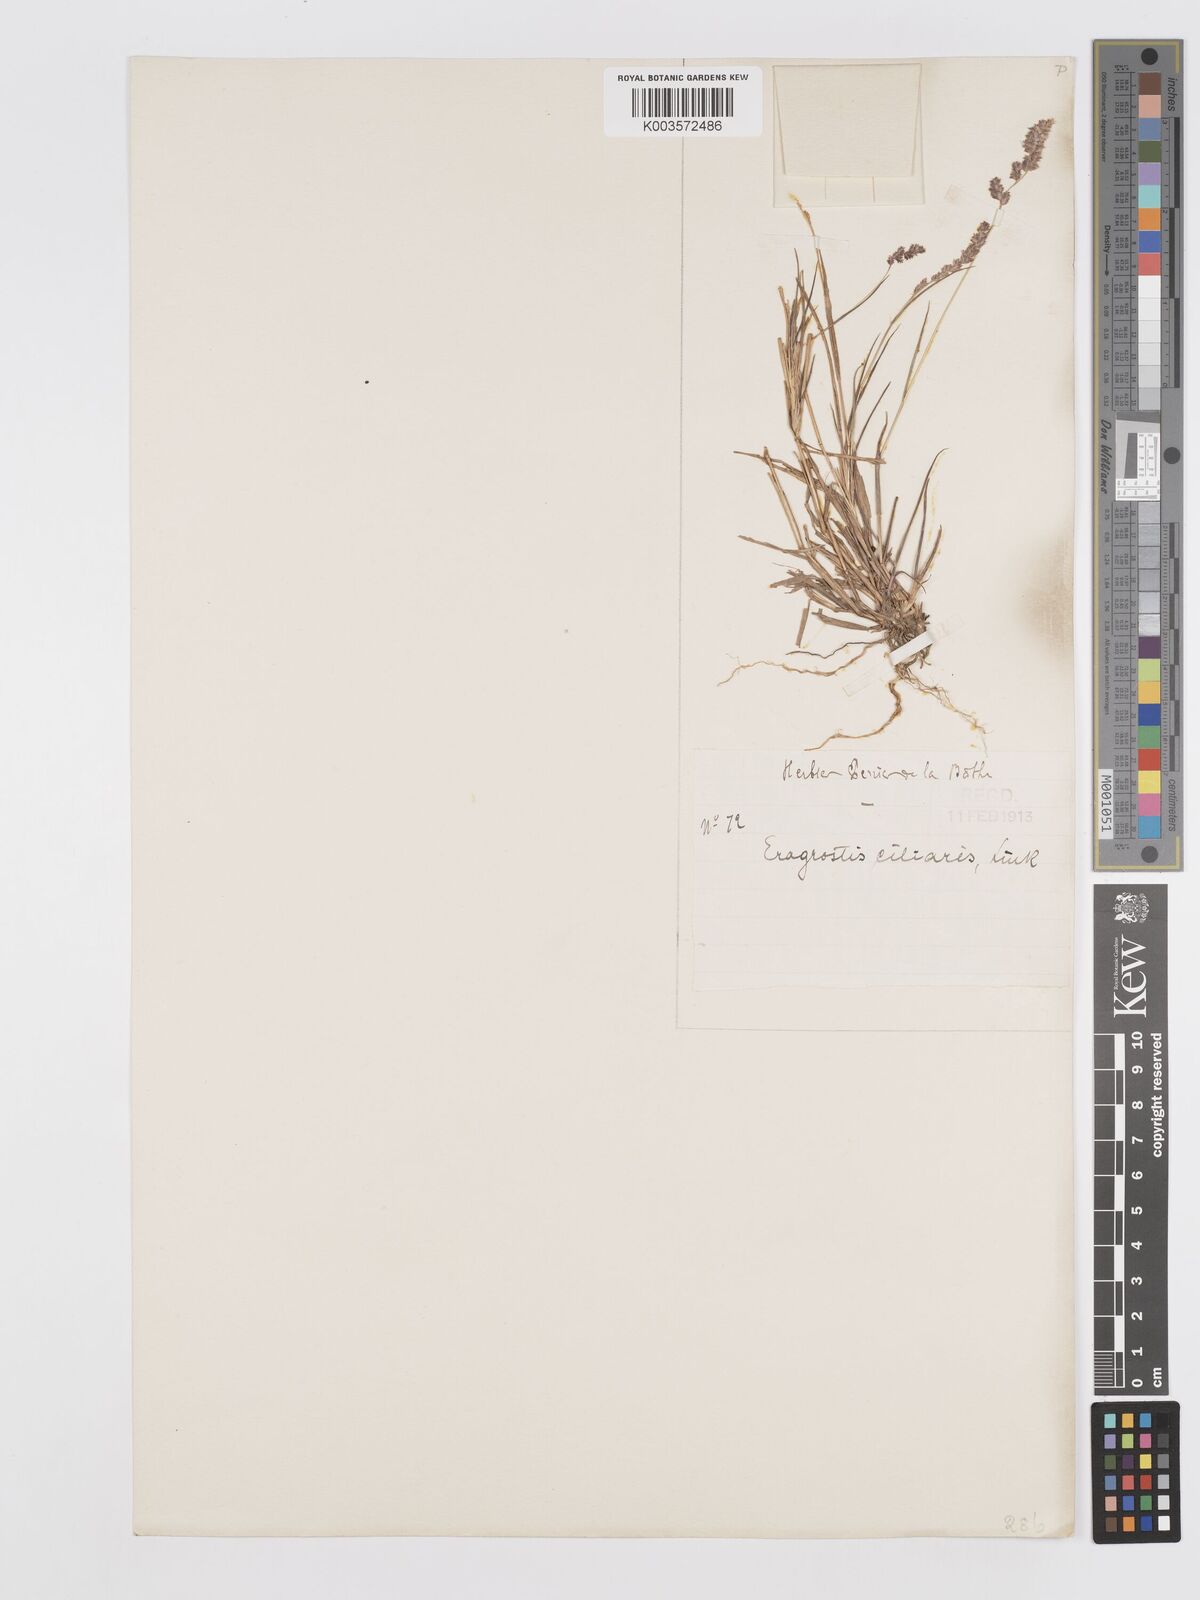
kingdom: Plantae
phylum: Tracheophyta
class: Liliopsida
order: Poales
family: Poaceae
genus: Eragrostis
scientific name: Eragrostis ciliaris
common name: Gophertail lovegrass
